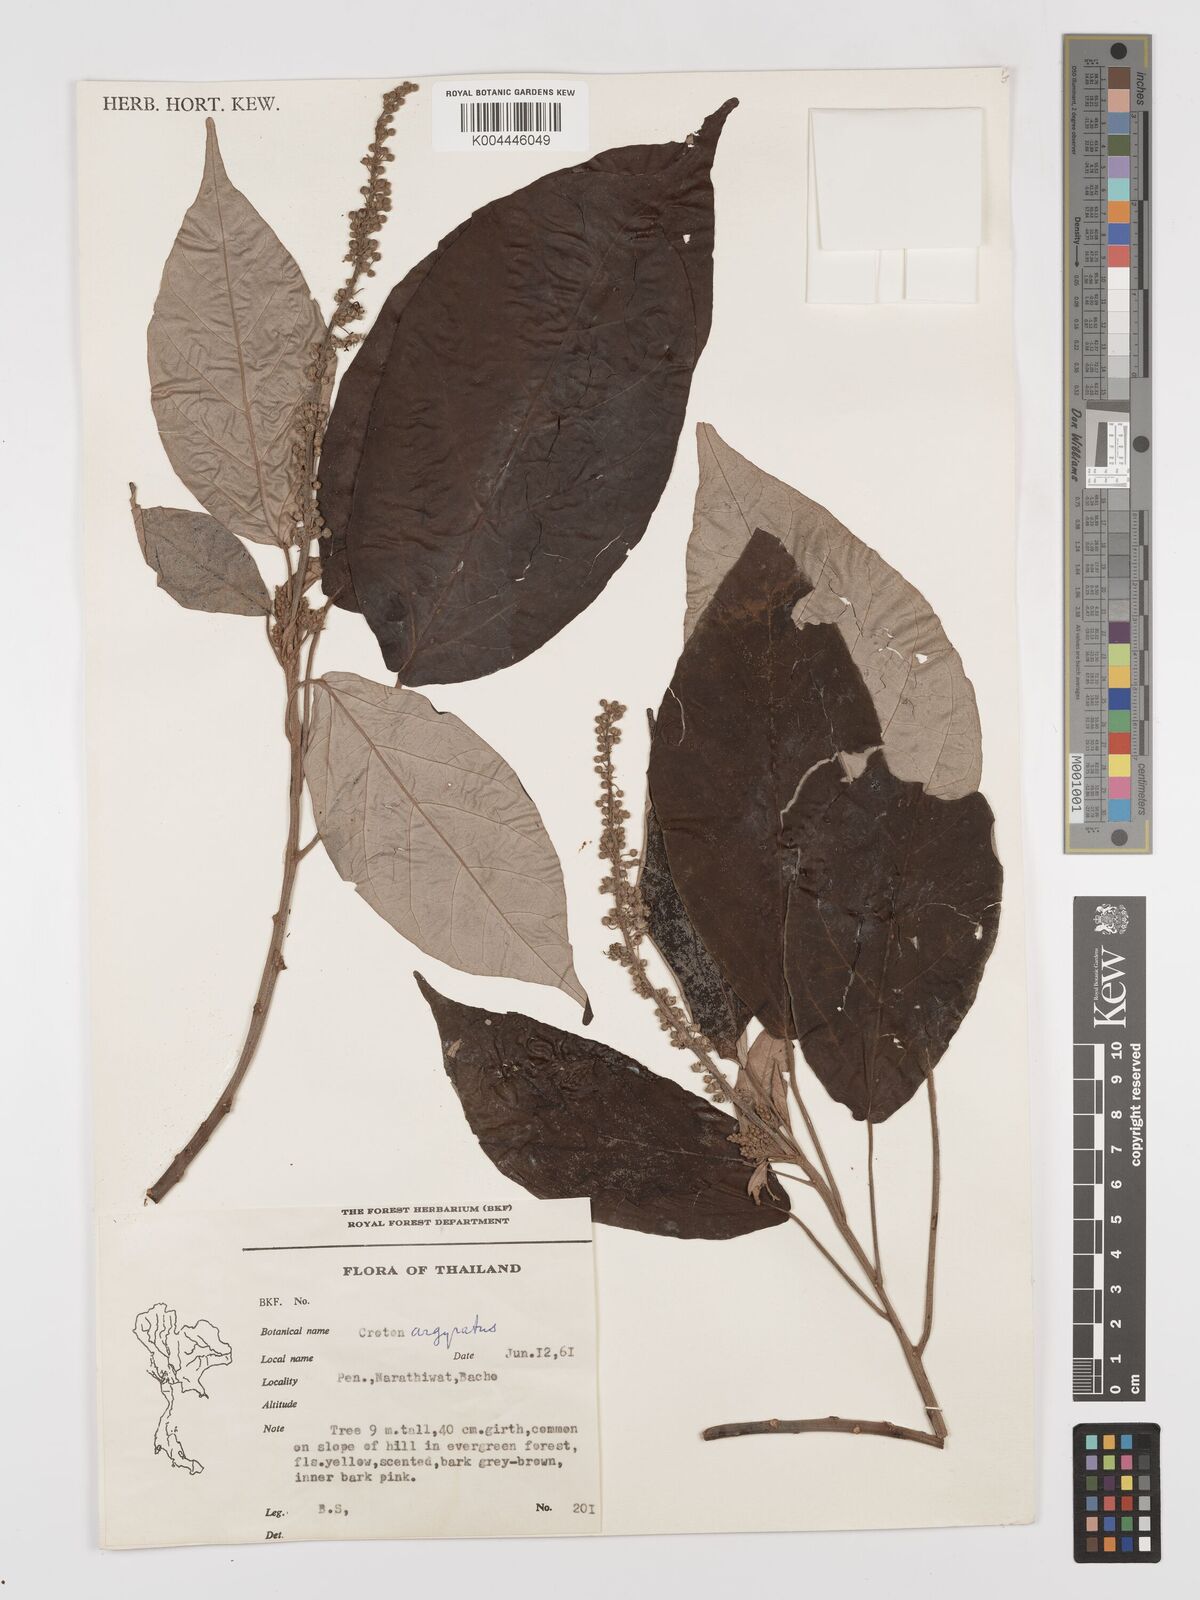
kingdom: Plantae
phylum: Tracheophyta
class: Magnoliopsida
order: Malpighiales
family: Euphorbiaceae
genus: Croton
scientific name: Croton argyratus
